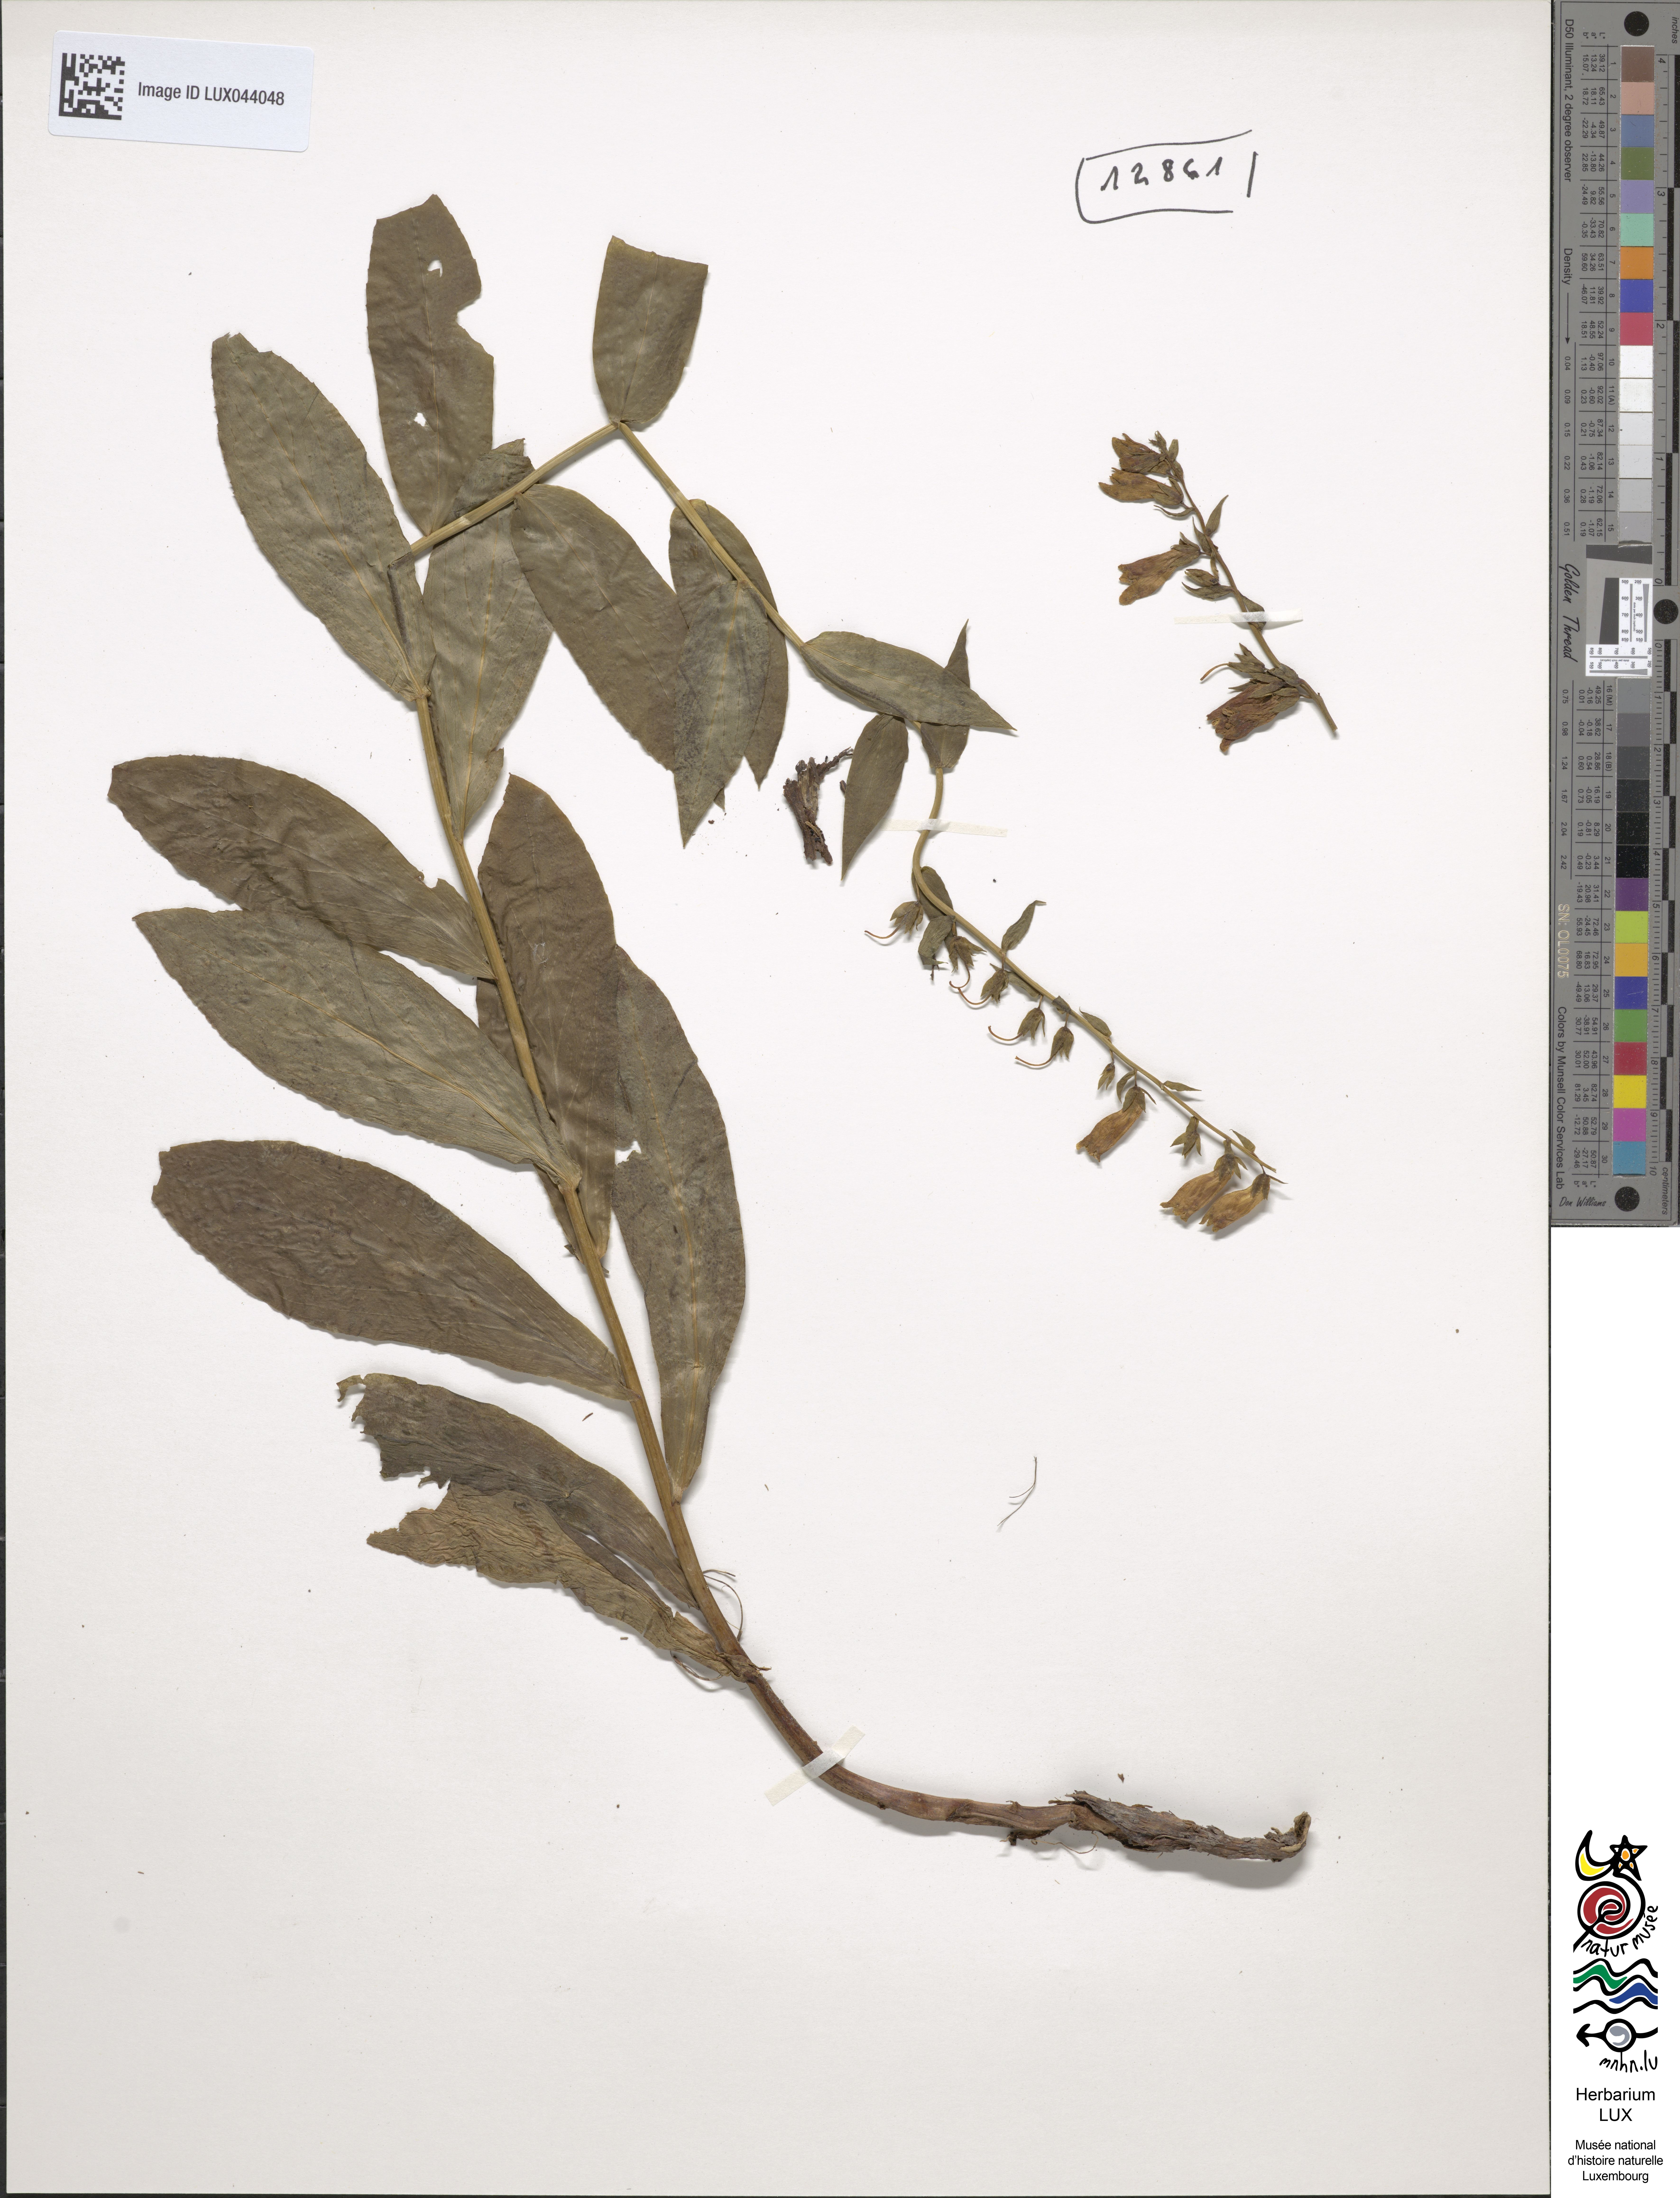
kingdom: Plantae
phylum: Tracheophyta
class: Magnoliopsida
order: Lamiales
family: Plantaginaceae
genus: Digitalis
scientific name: Digitalis lutea
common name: Straw foxglove
